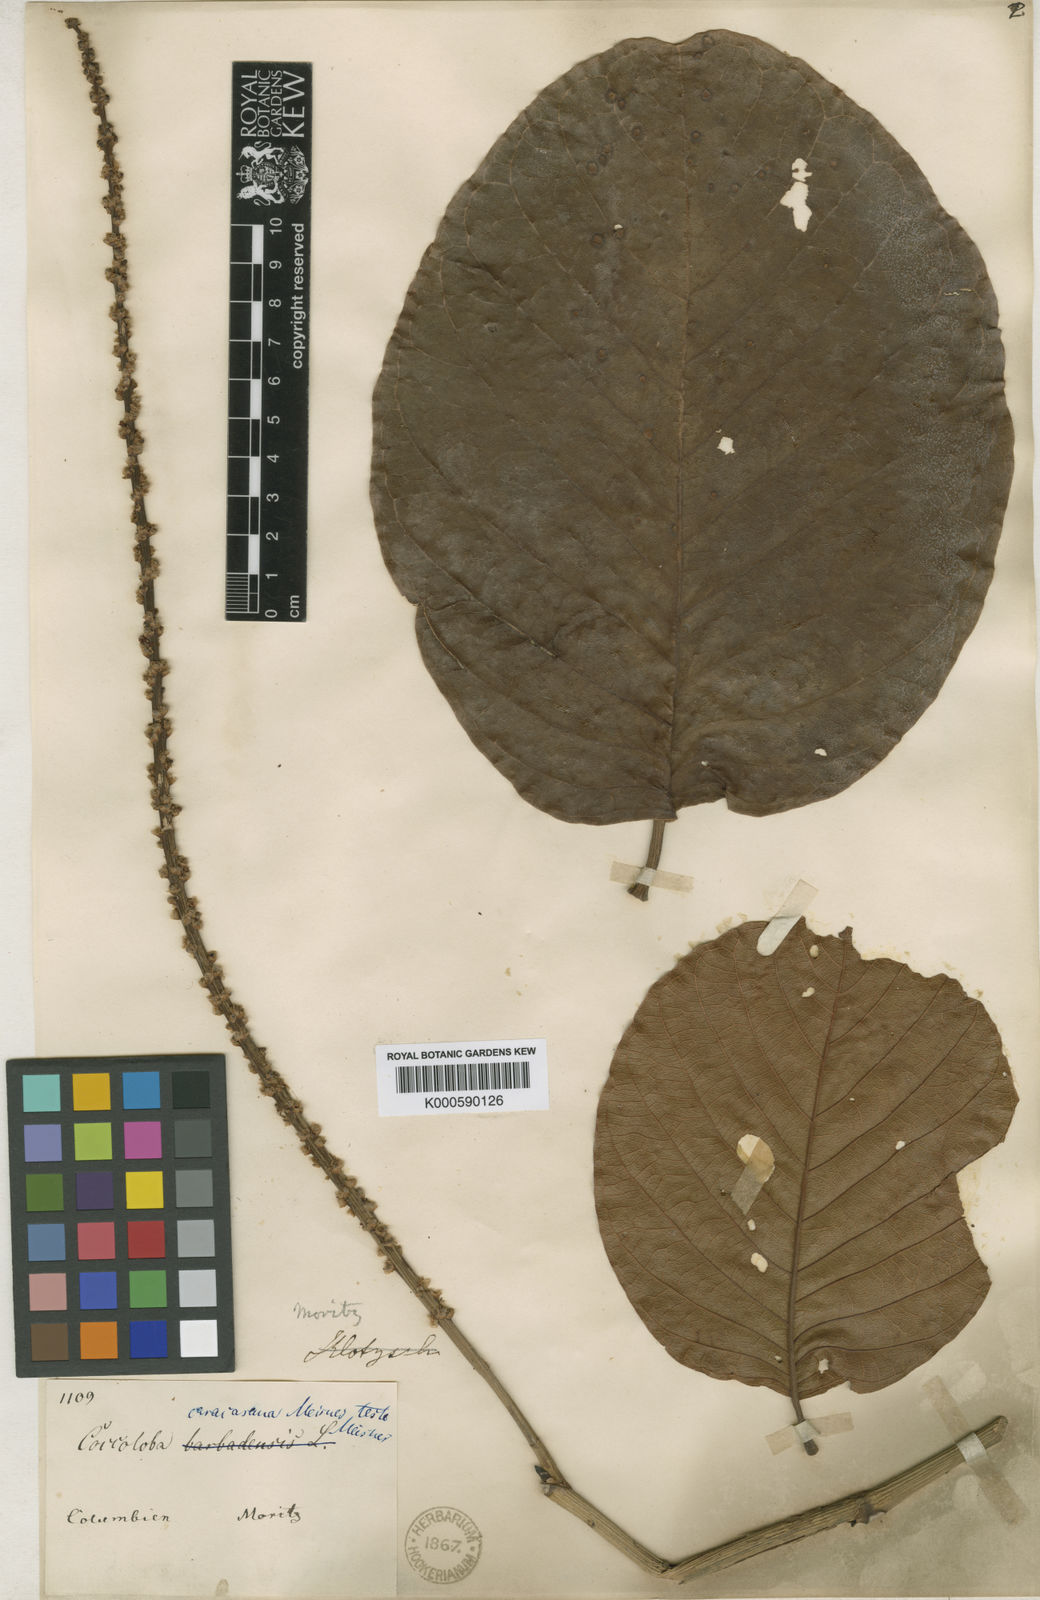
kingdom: Plantae
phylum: Tracheophyta
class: Magnoliopsida
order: Caryophyllales
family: Polygonaceae
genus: Coccoloba
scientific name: Coccoloba caracasana
